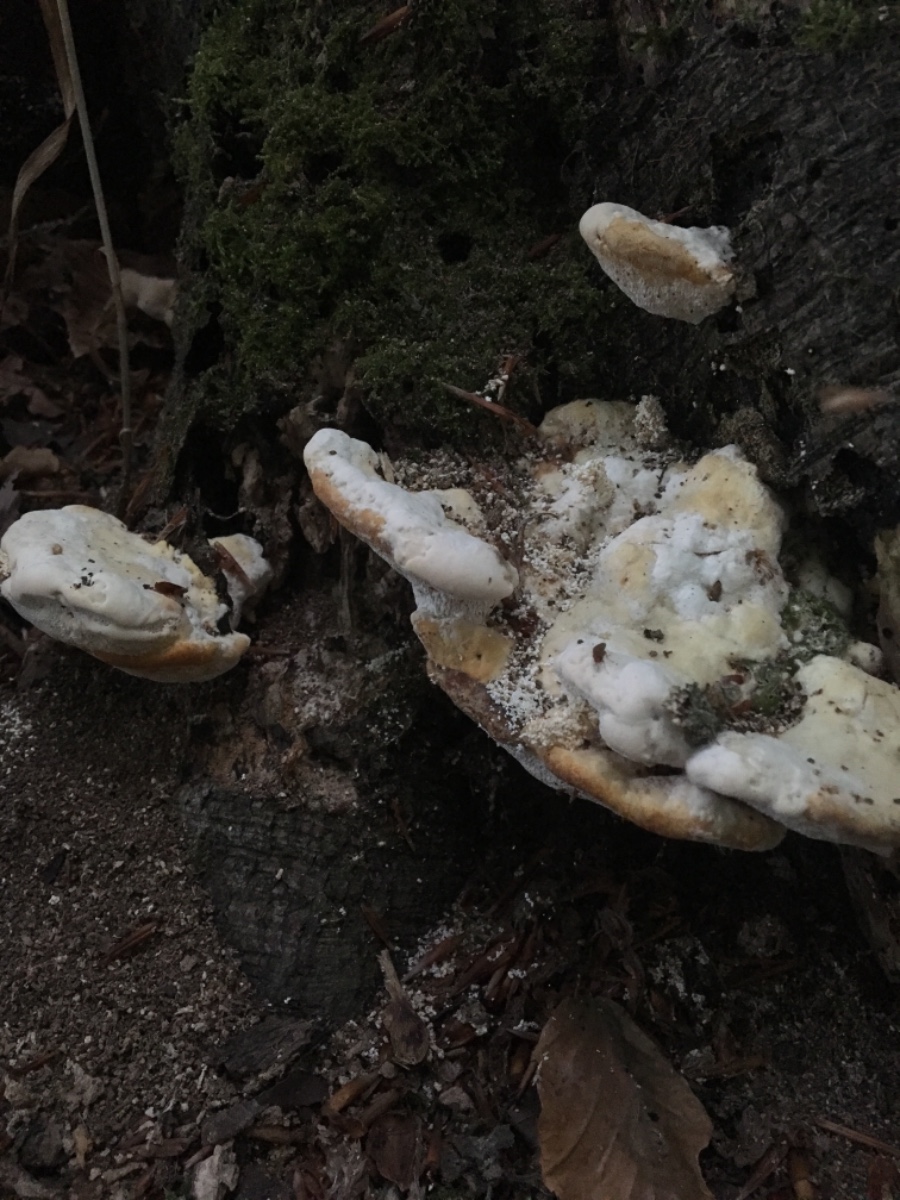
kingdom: Fungi
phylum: Basidiomycota
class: Agaricomycetes
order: Polyporales
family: Polyporaceae
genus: Trametes
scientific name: Trametes gibbosa
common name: puklet læderporesvamp
